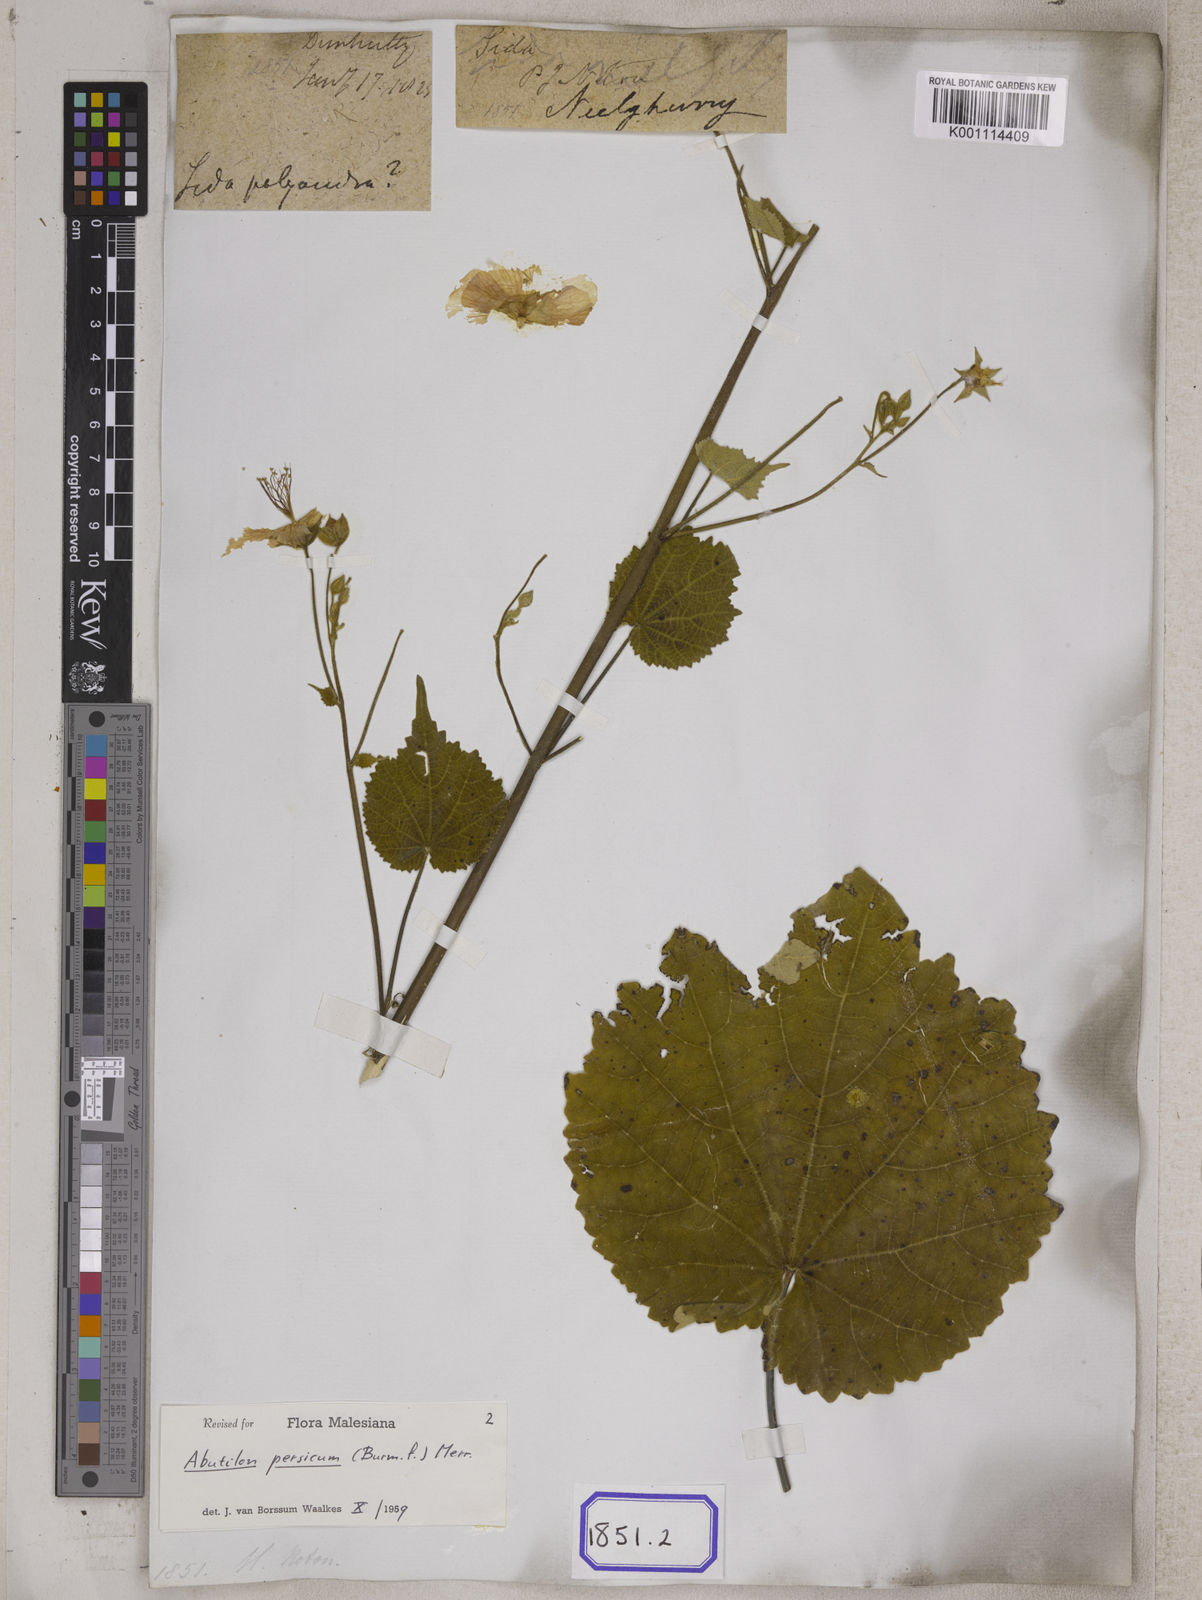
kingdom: Plantae
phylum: Tracheophyta
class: Magnoliopsida
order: Malvales
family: Malvaceae
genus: Abutilon
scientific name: Abutilon persicum
